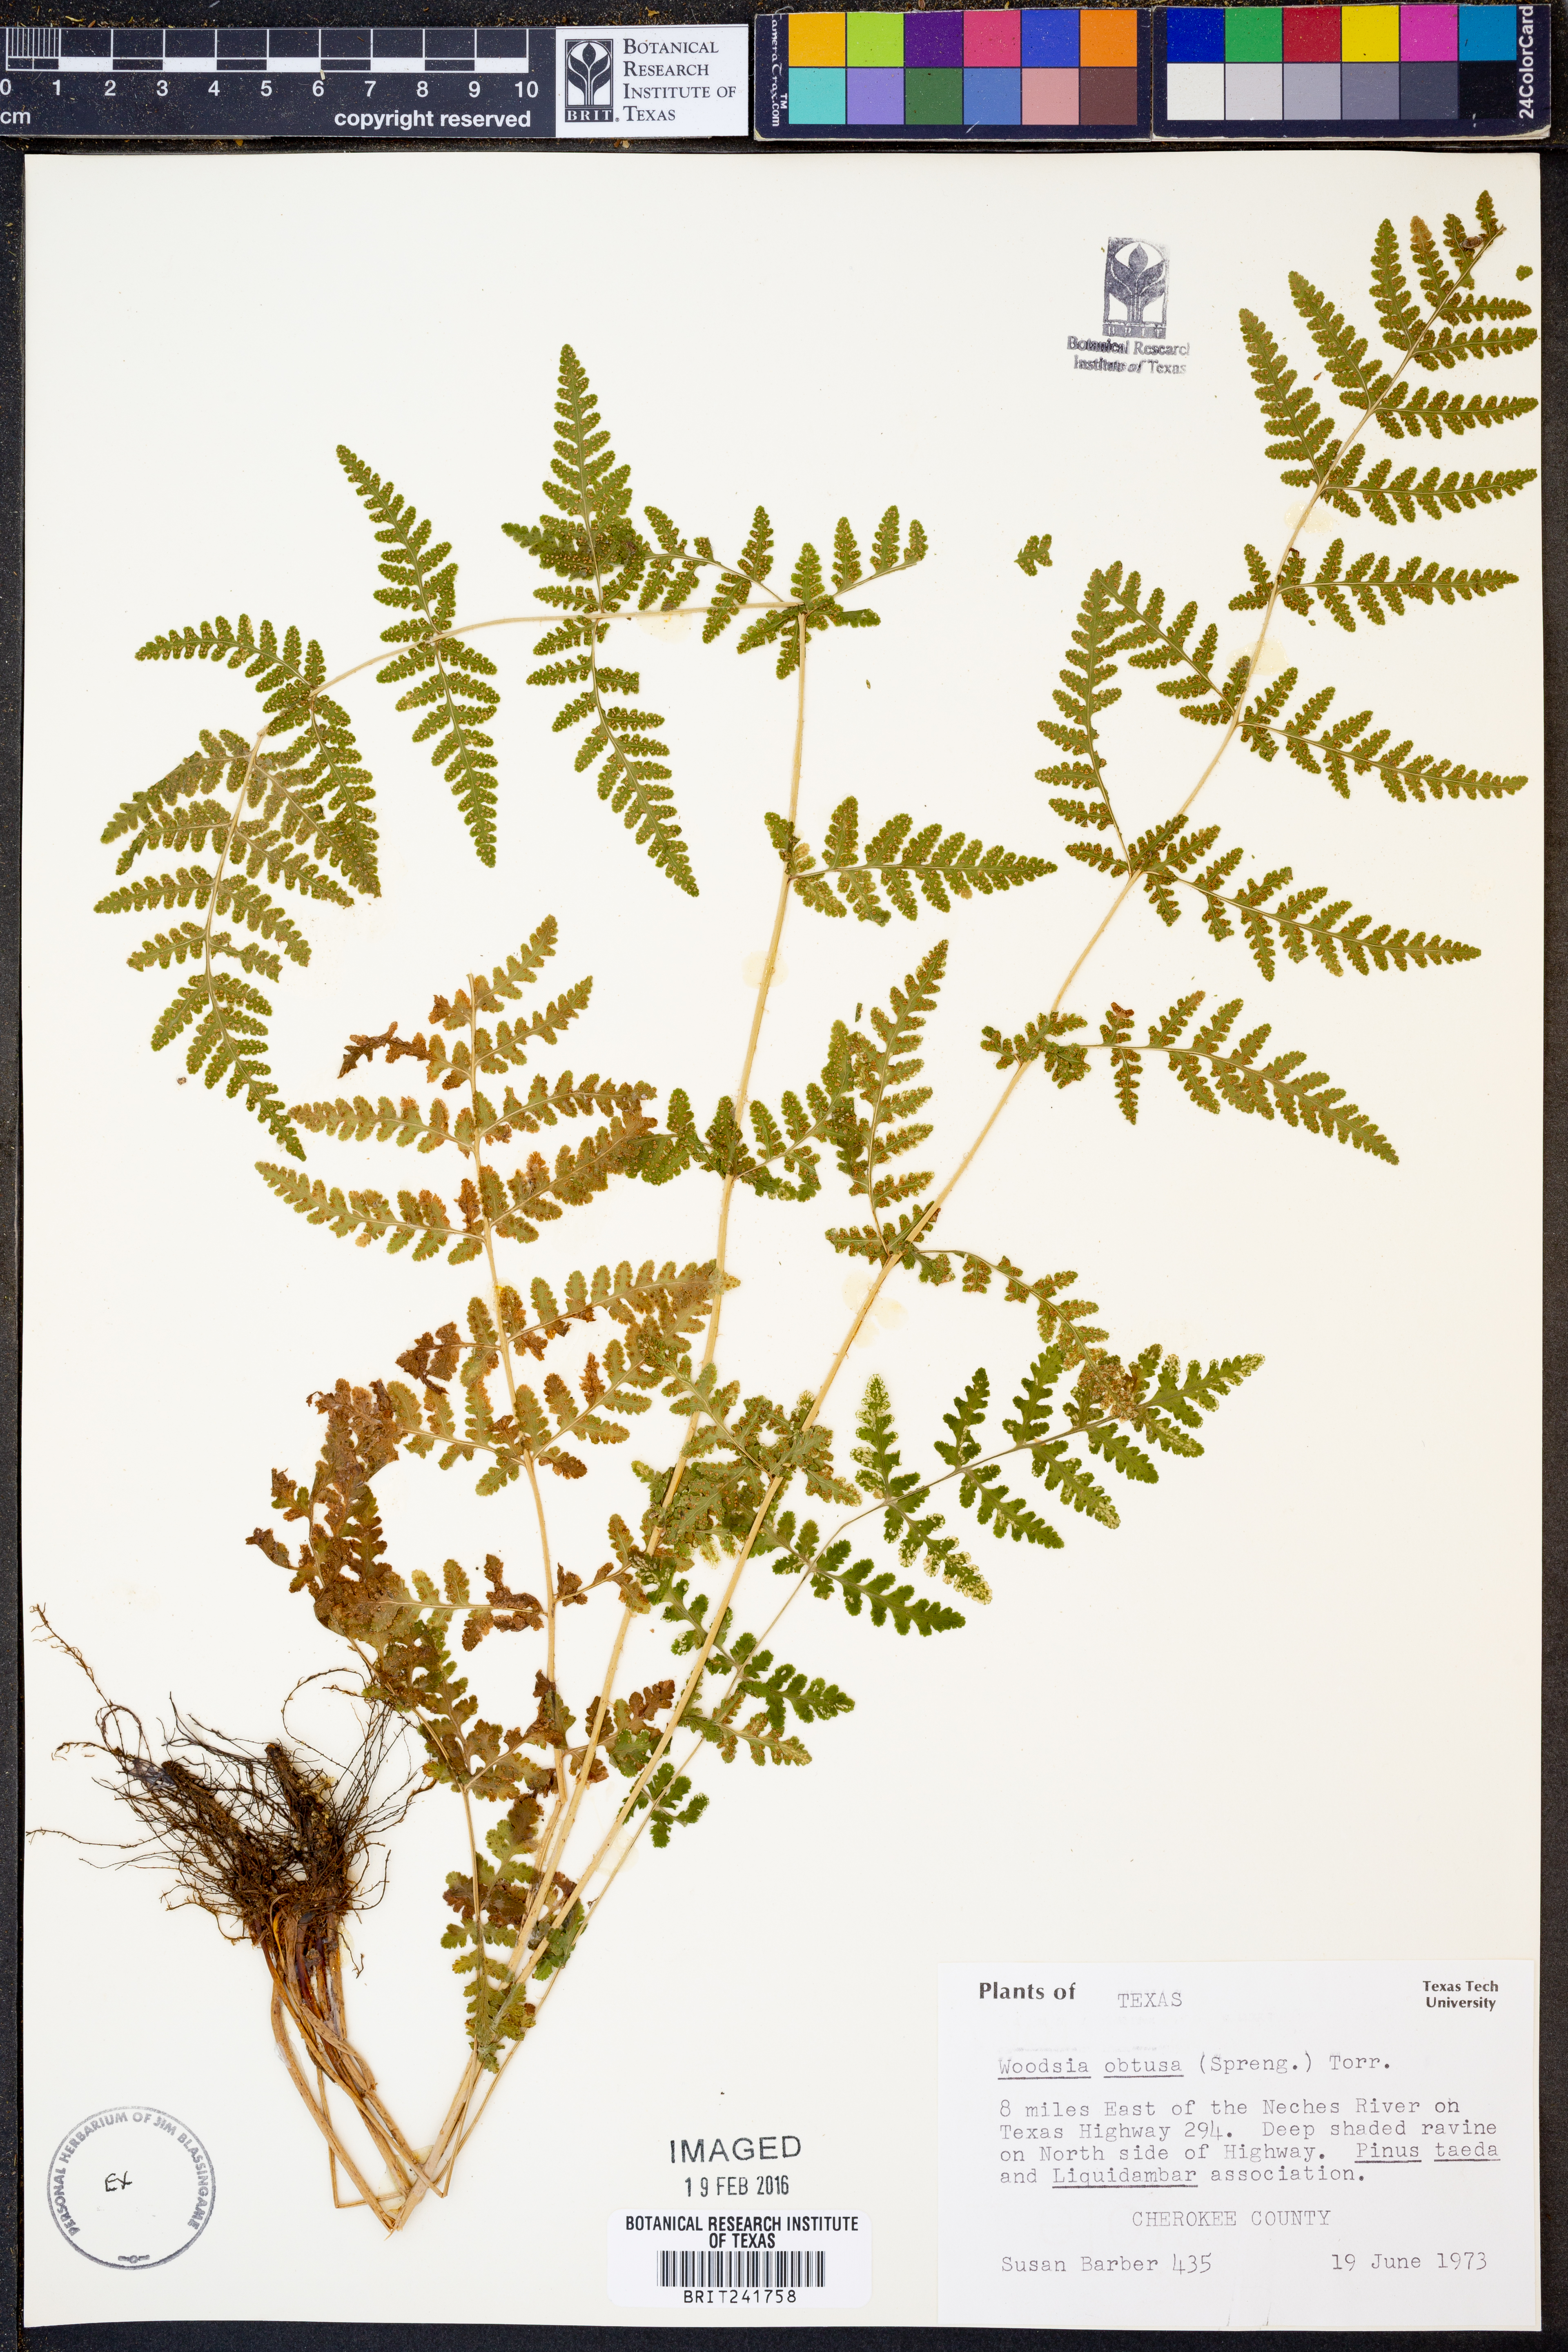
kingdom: Plantae
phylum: Tracheophyta
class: Polypodiopsida
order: Polypodiales
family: Woodsiaceae
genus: Physematium
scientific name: Physematium obtusum
